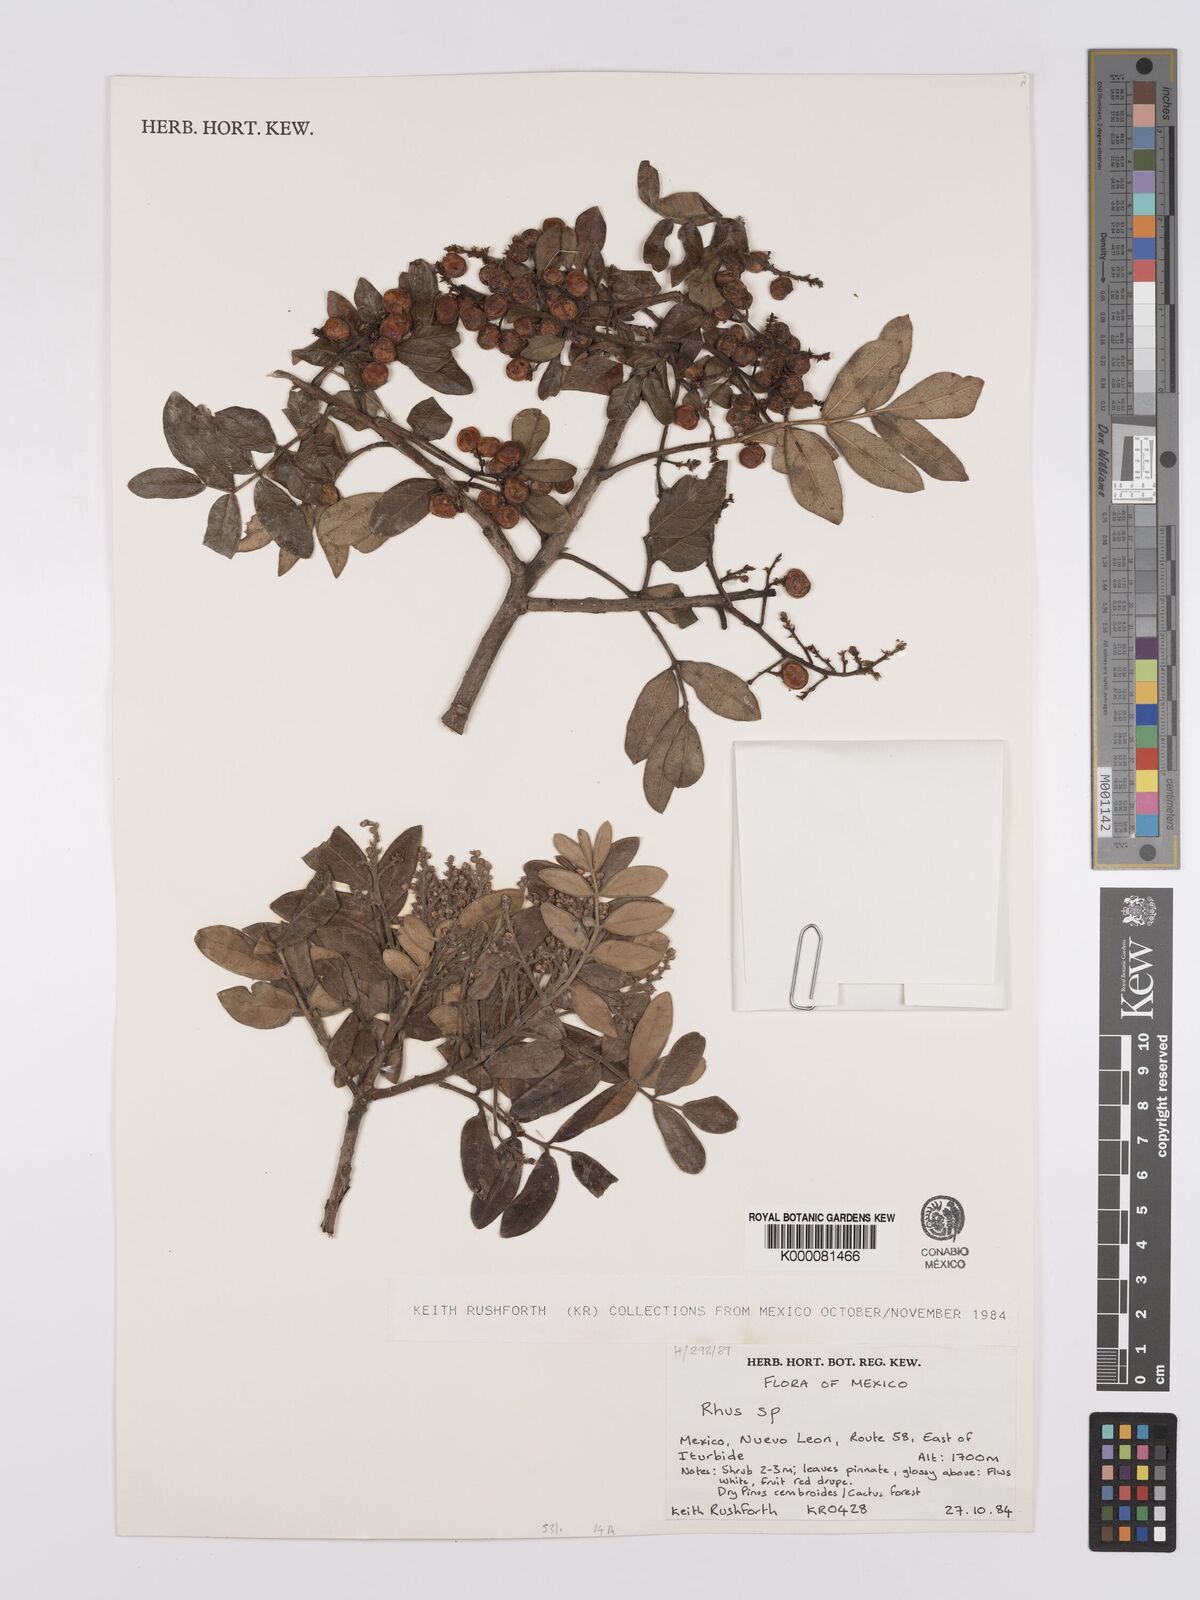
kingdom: Plantae
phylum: Tracheophyta
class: Magnoliopsida
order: Sapindales
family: Anacardiaceae
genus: Rhus
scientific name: Rhus
